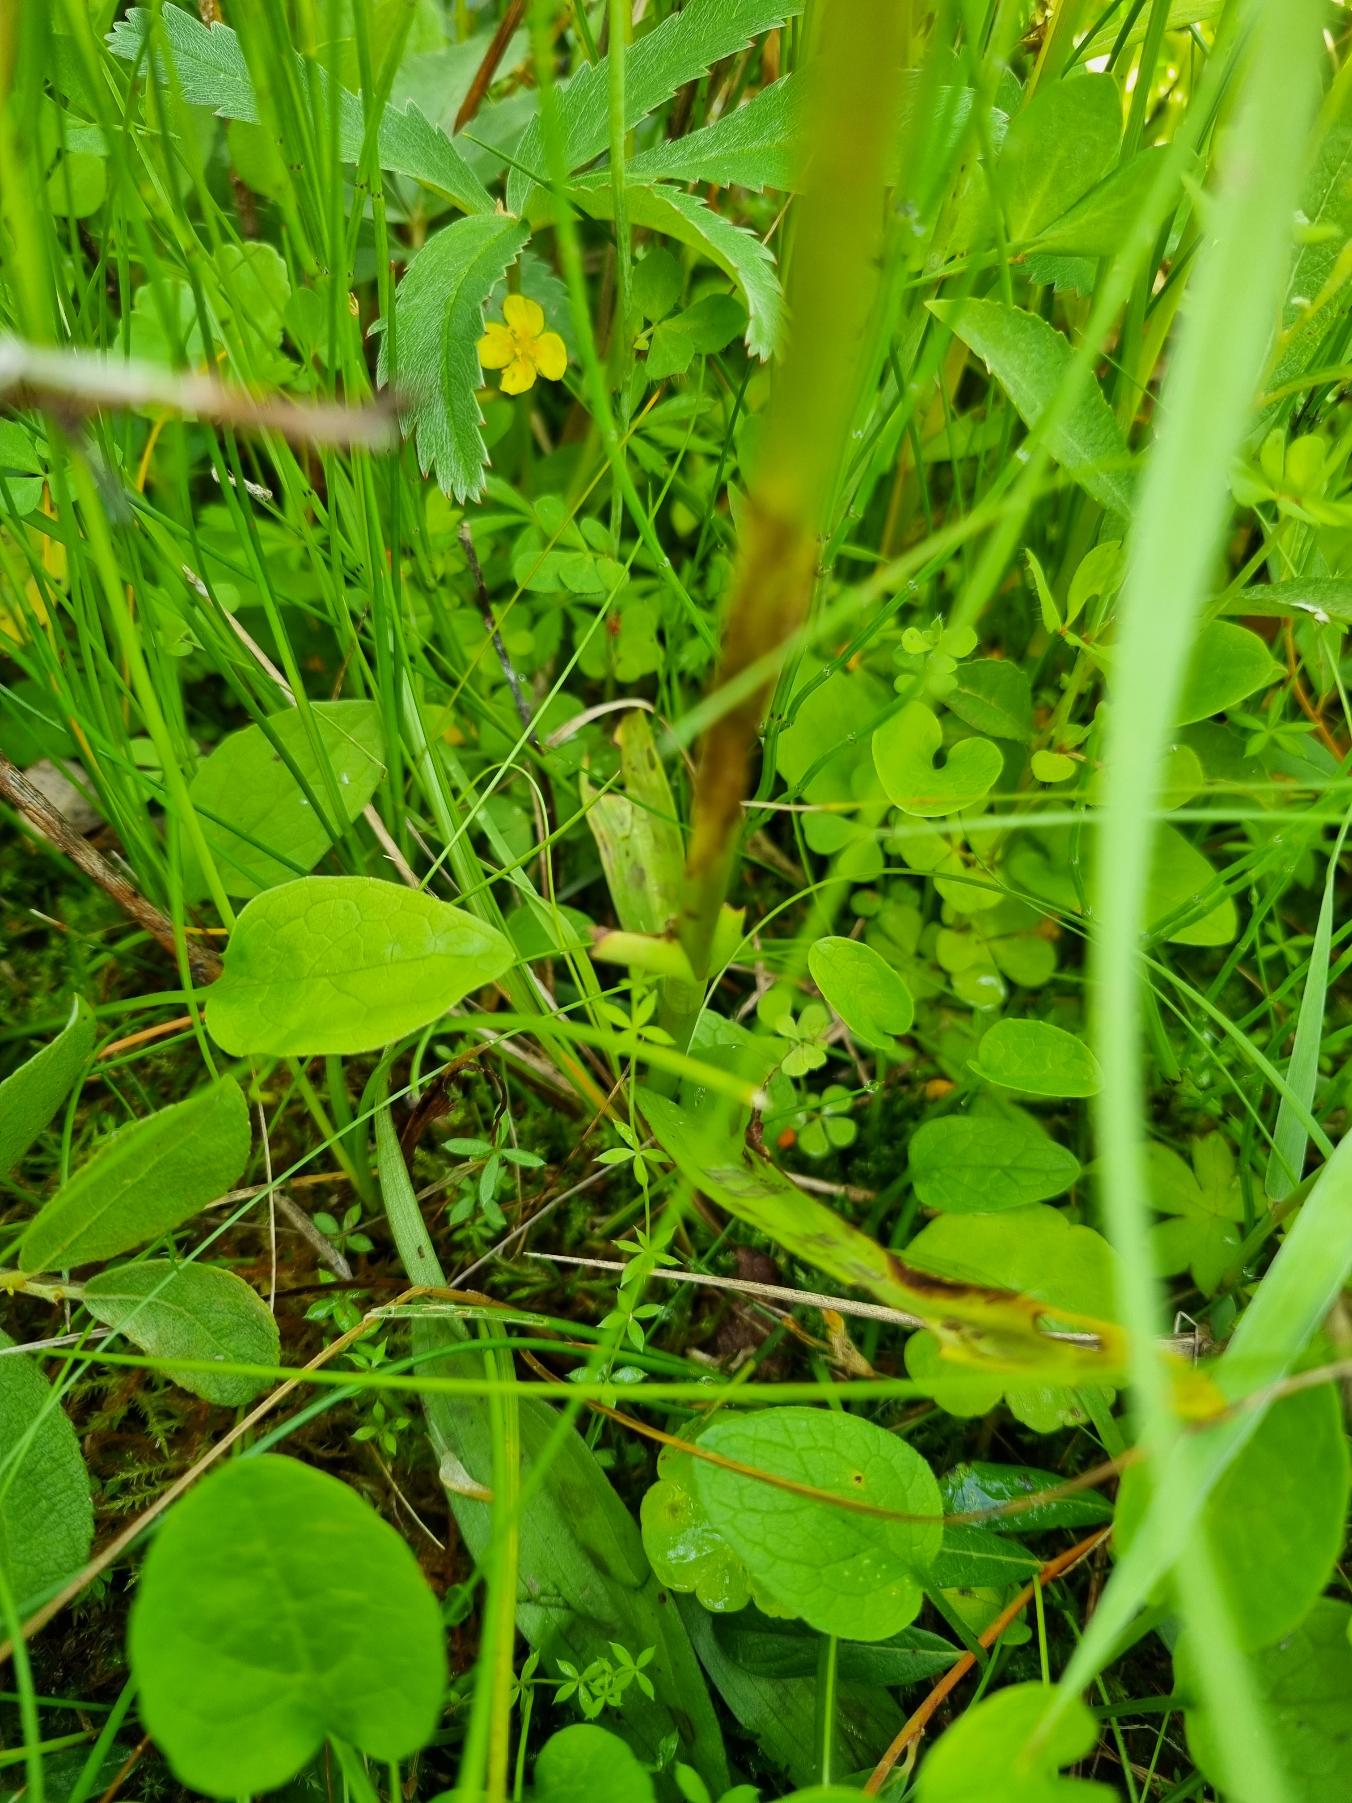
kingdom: Plantae
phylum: Tracheophyta
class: Liliopsida
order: Asparagales
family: Orchidaceae
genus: Dactylorhiza
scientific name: Dactylorhiza majalis
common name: Maj-gøgeurt
